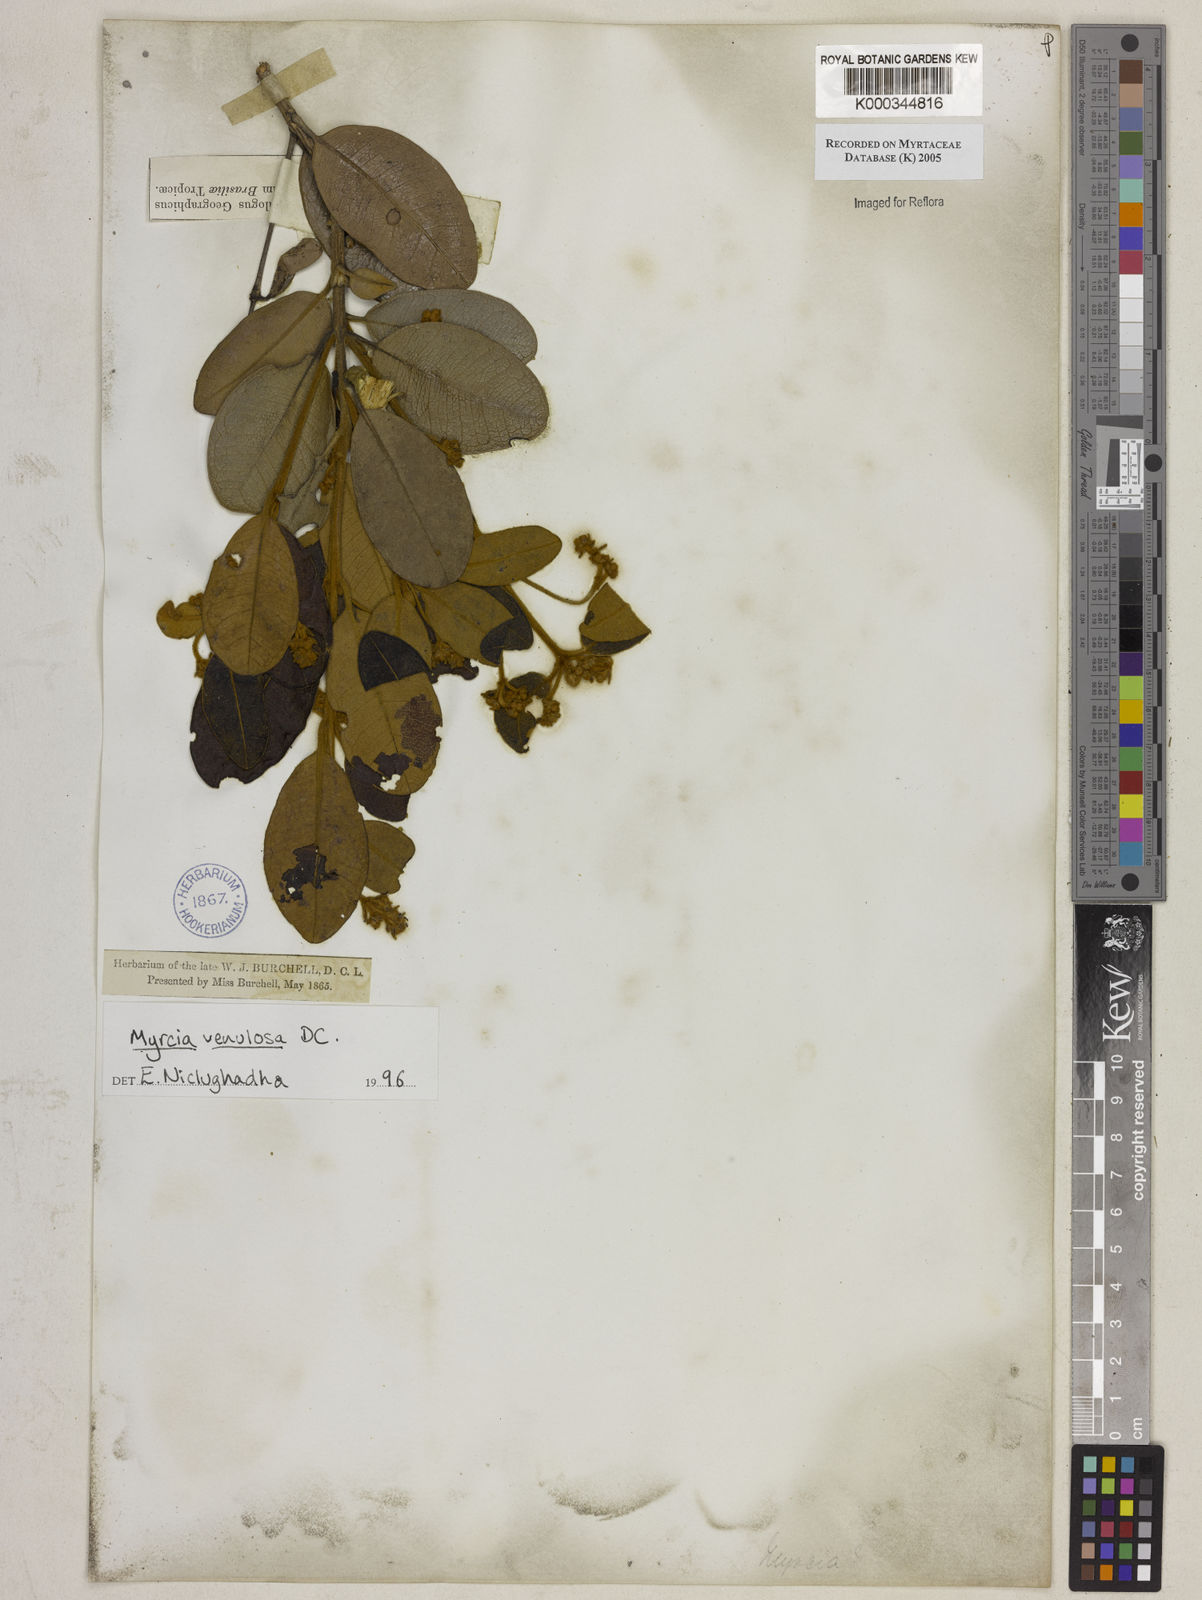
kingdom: Plantae
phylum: Tracheophyta
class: Magnoliopsida
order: Myrtales
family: Myrtaceae
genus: Myrcia
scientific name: Myrcia venulosa
